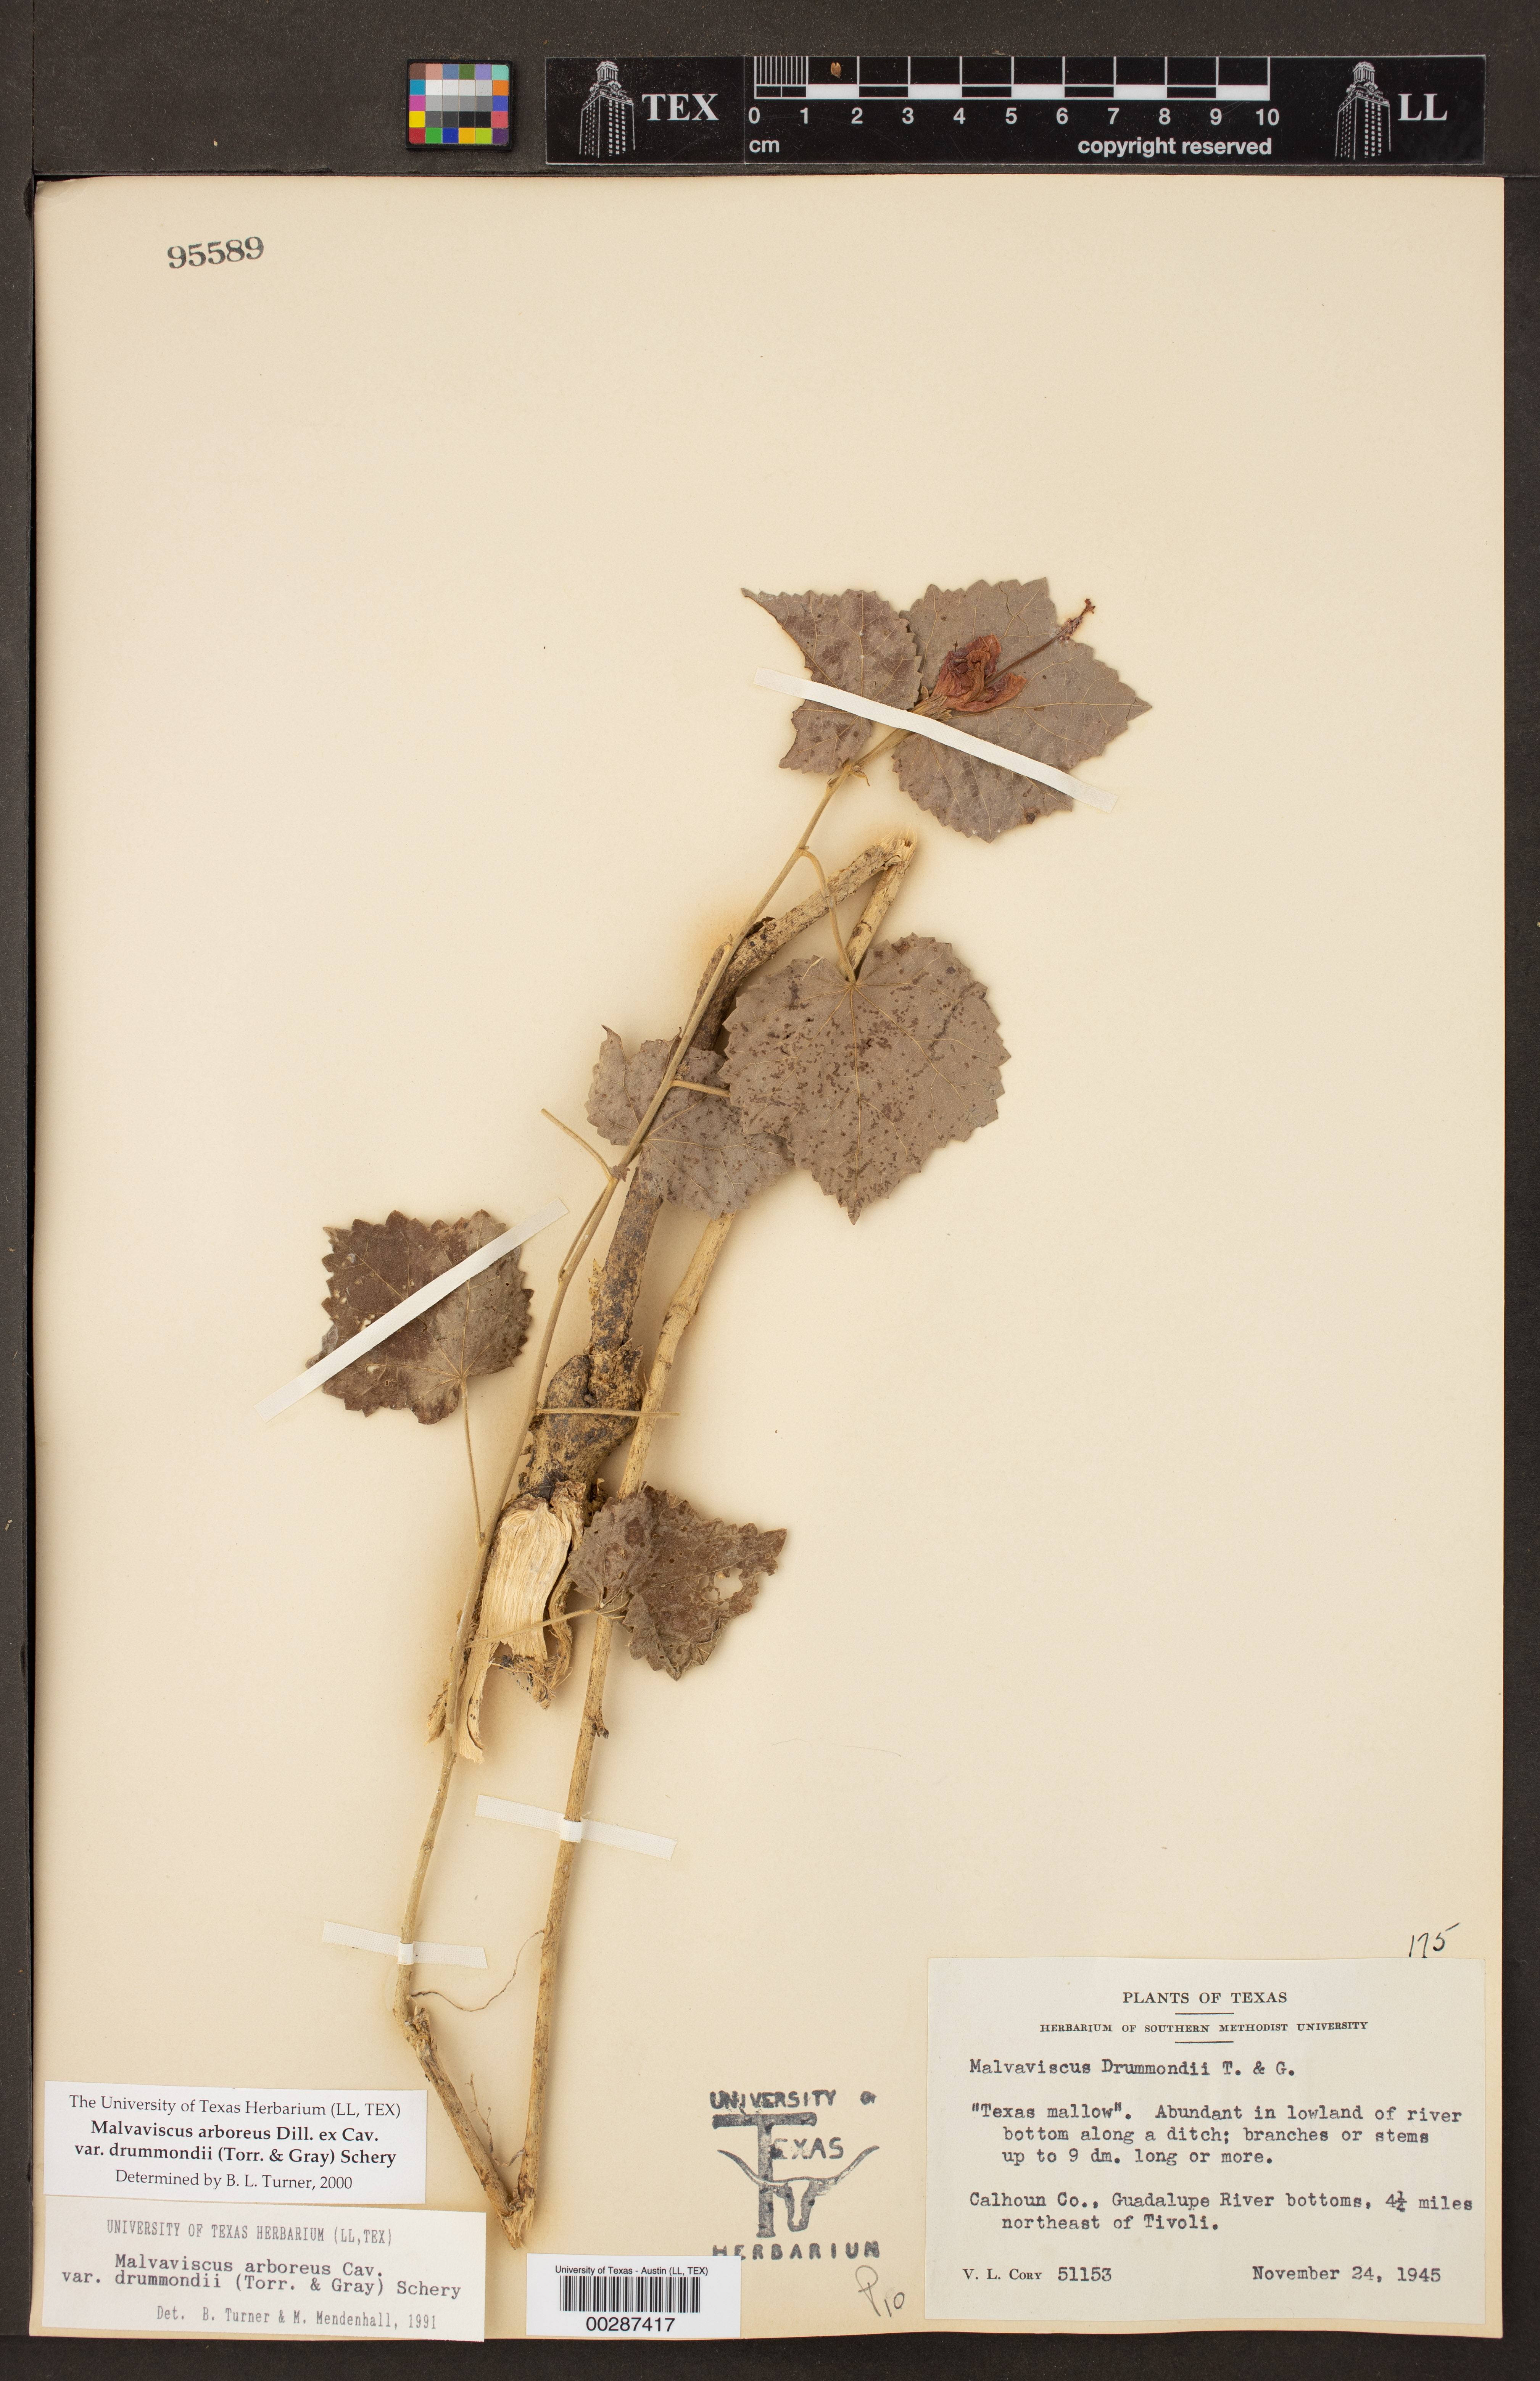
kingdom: Plantae
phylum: Tracheophyta
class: Magnoliopsida
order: Malvales
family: Malvaceae
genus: Malvaviscus
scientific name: Malvaviscus arboreus
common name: Wax mallow
